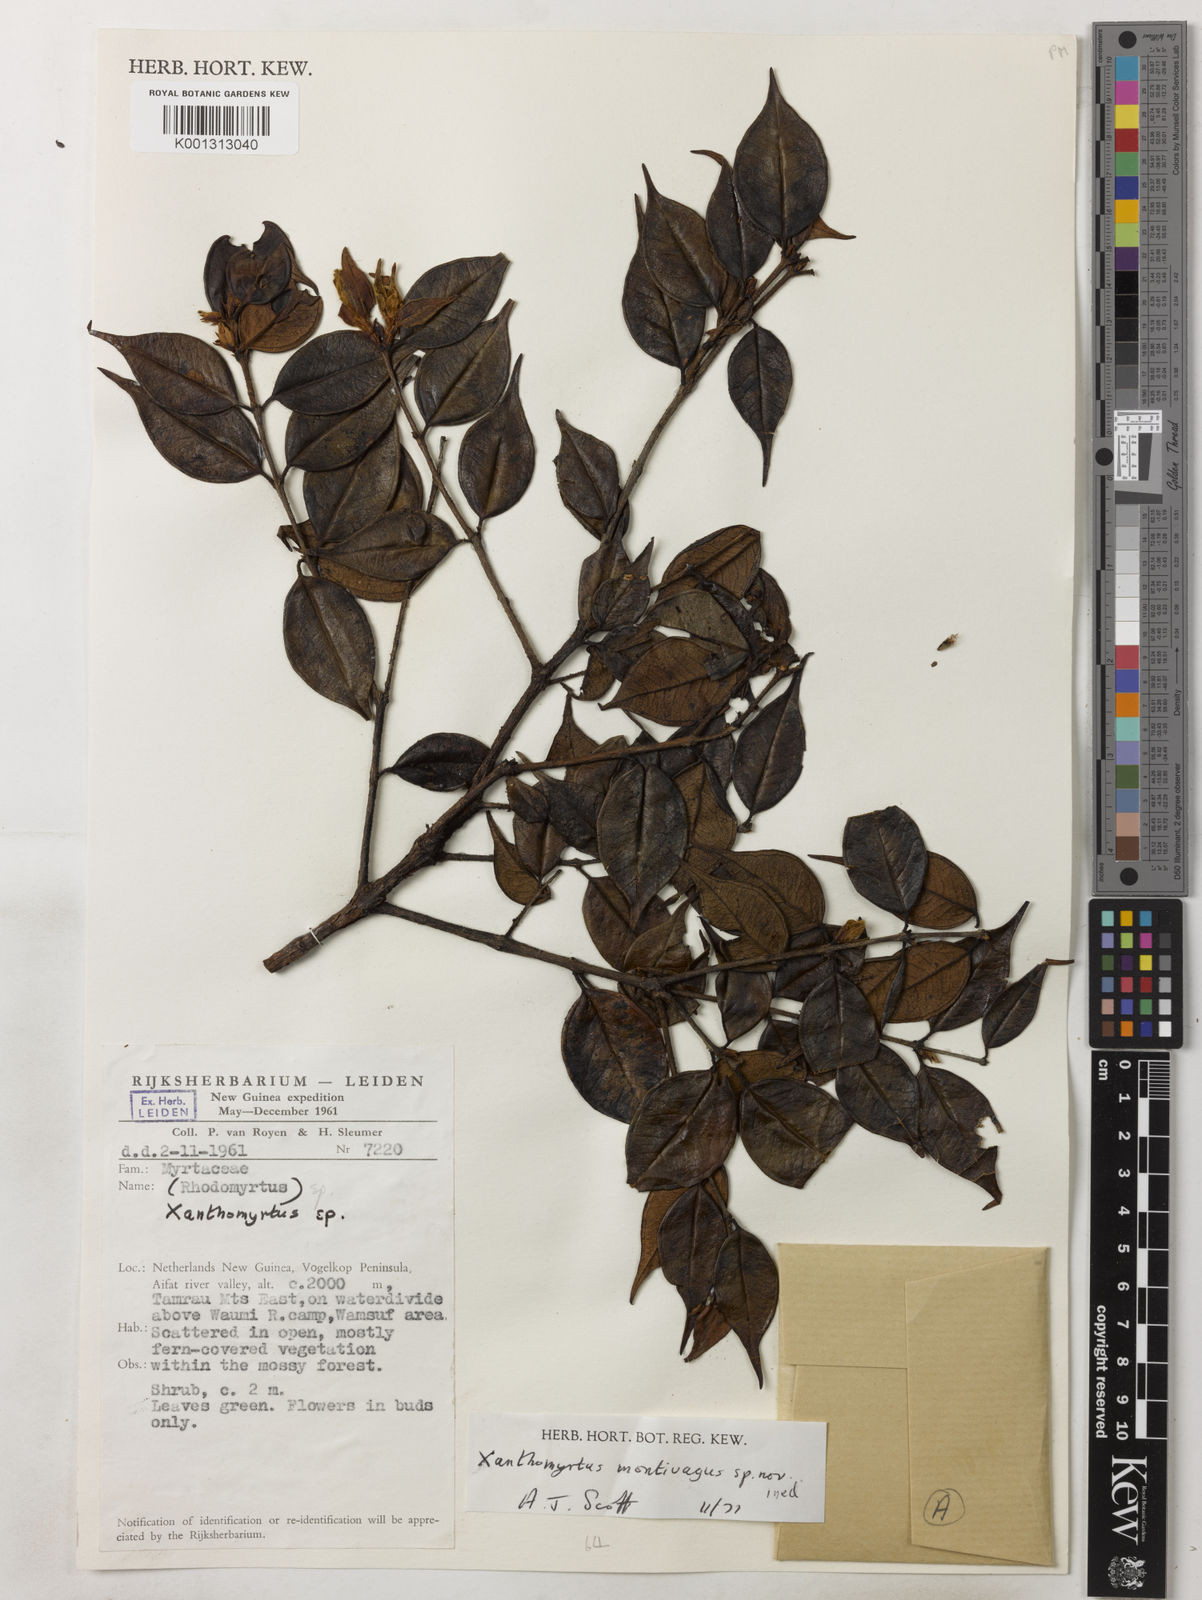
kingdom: Plantae
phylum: Tracheophyta
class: Magnoliopsida
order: Myrtales
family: Myrtaceae
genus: Xanthomyrtus
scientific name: Xanthomyrtus montivaga
